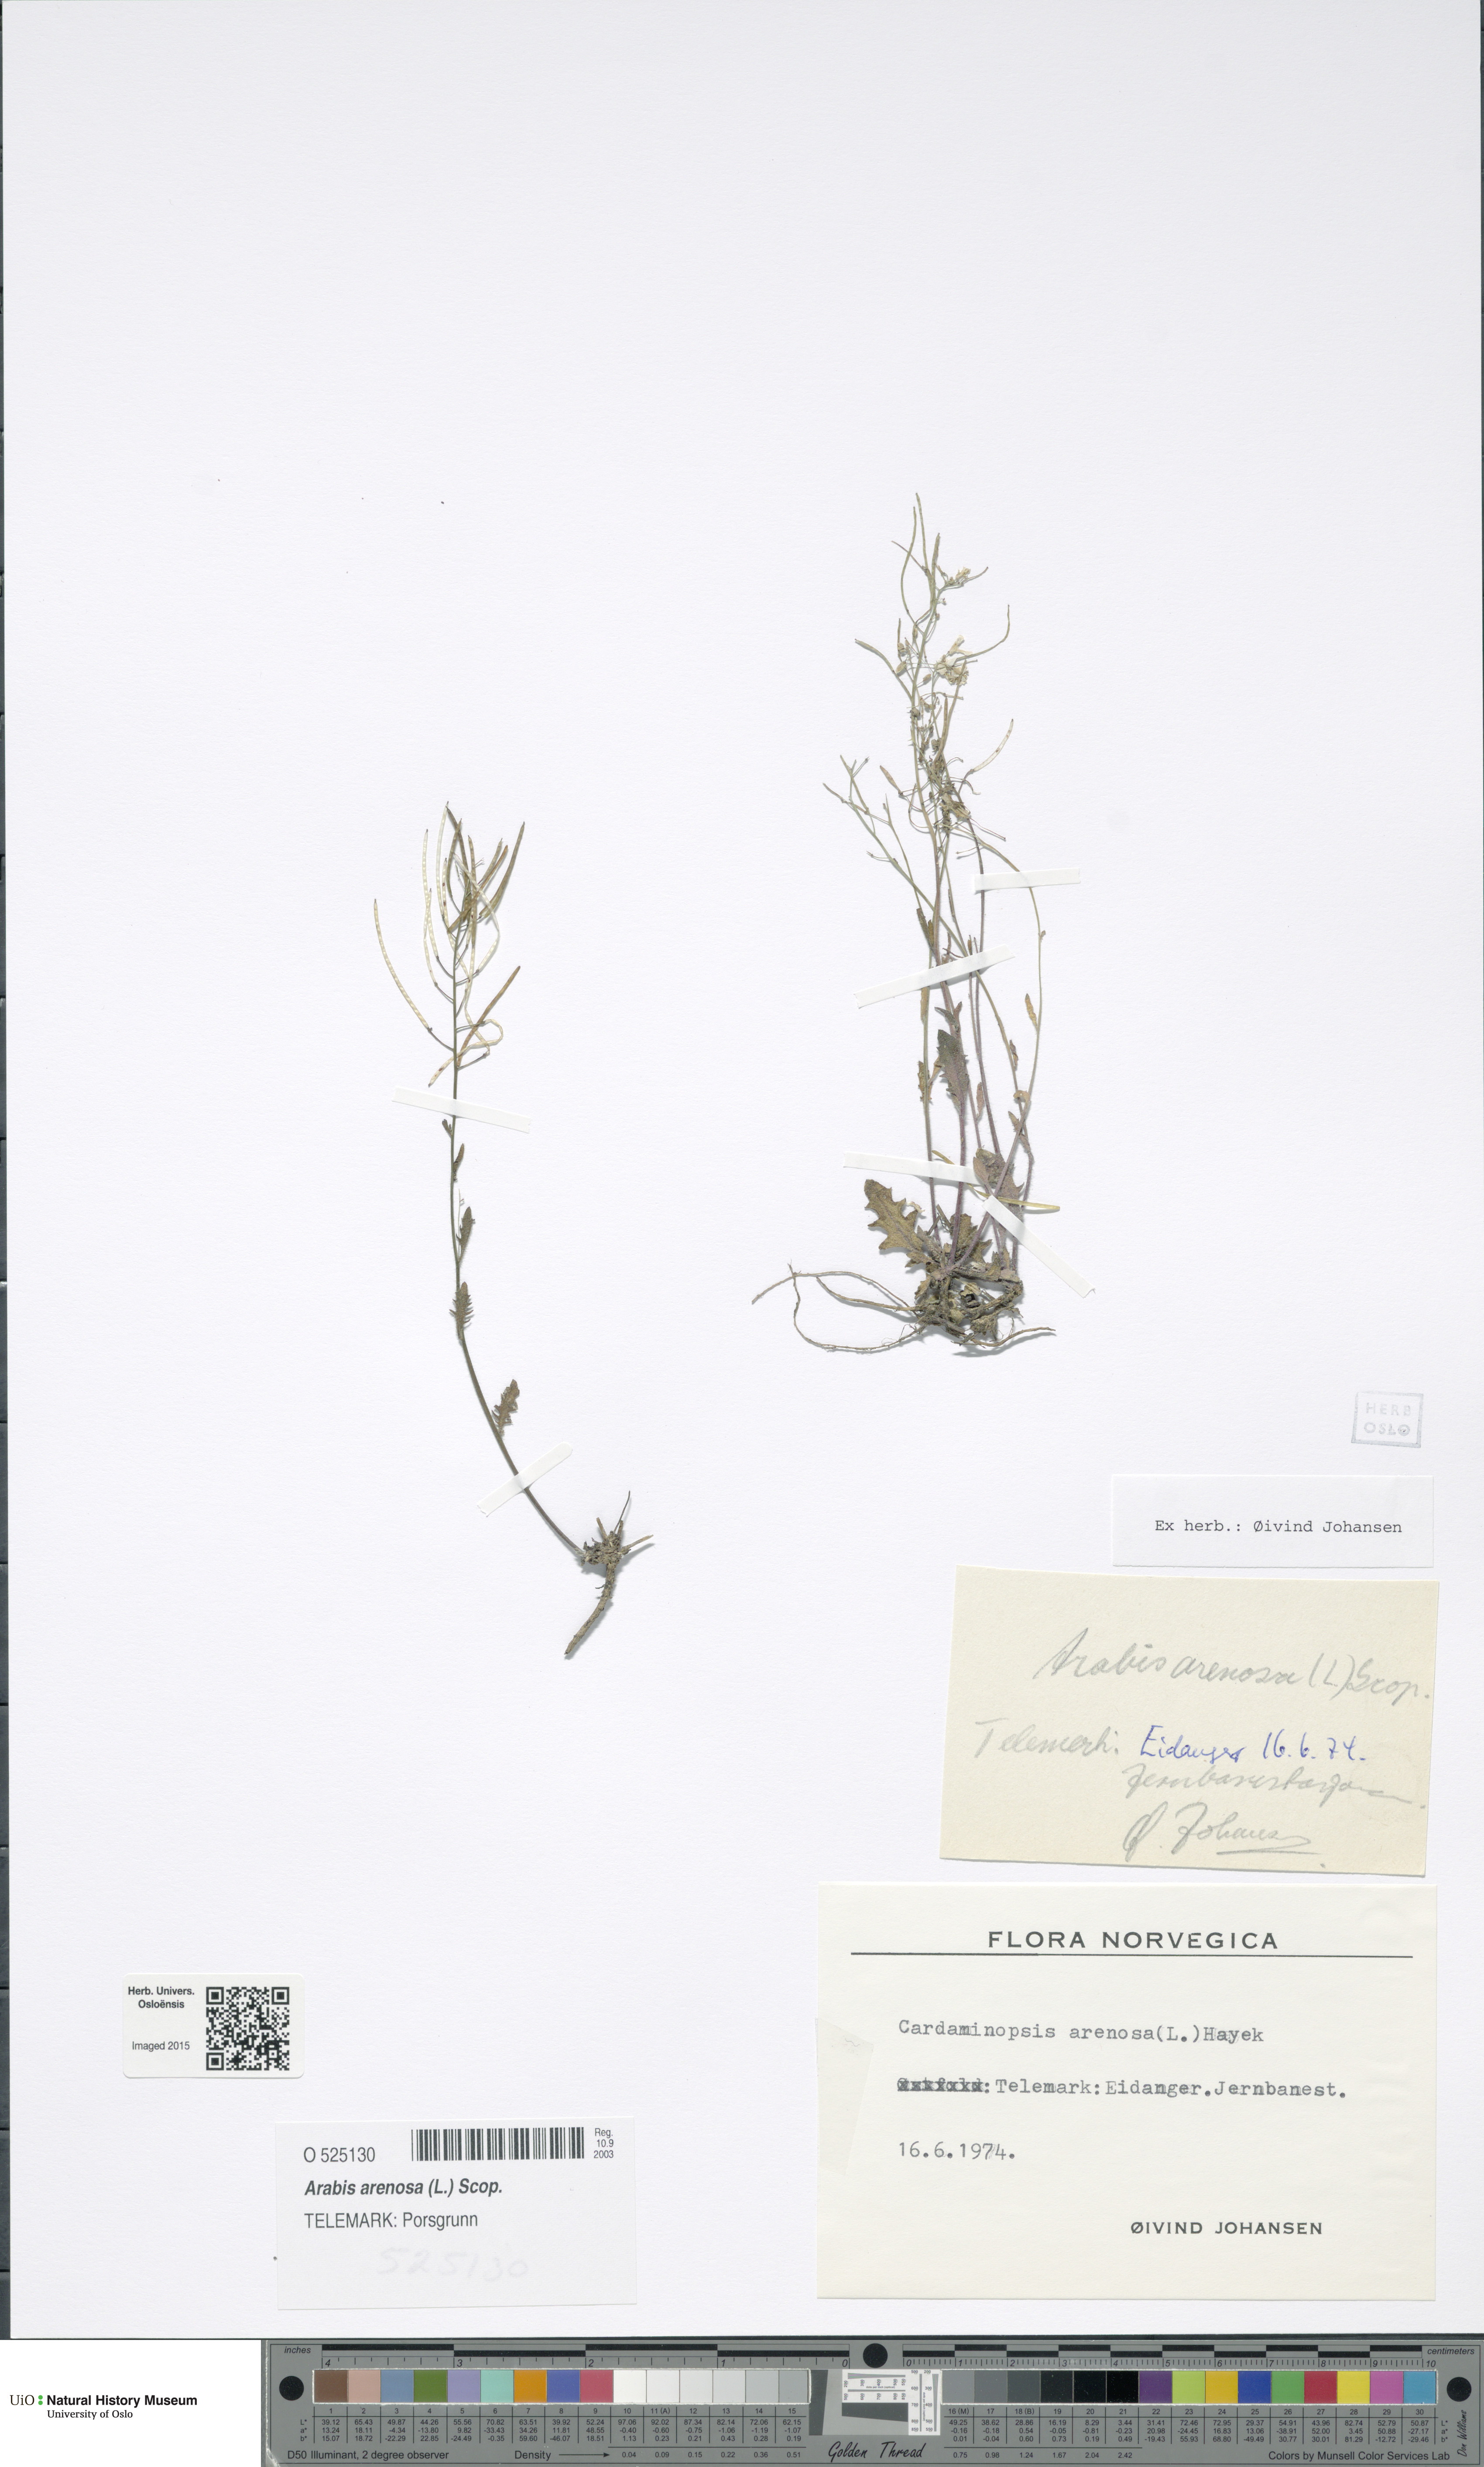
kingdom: Plantae
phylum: Tracheophyta
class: Magnoliopsida
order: Brassicales
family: Brassicaceae
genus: Arabidopsis
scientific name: Arabidopsis arenosa
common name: Sand rock-cress
